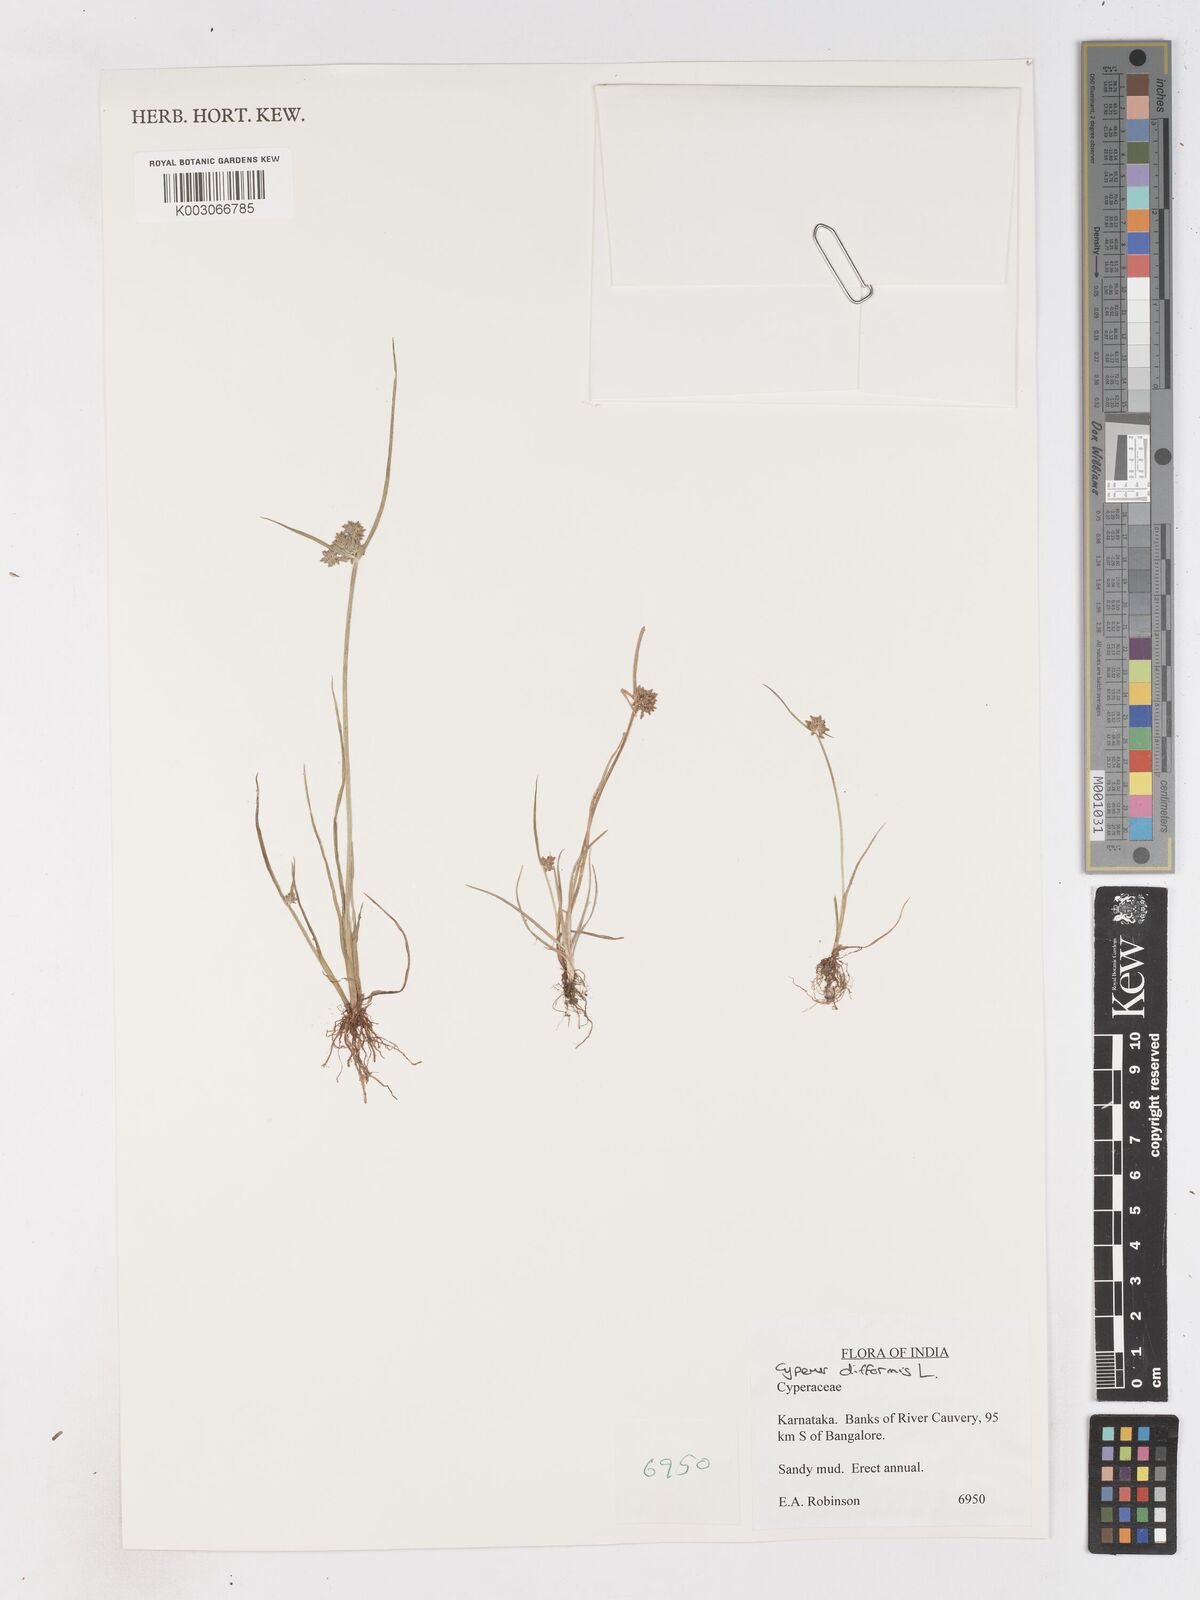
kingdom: Plantae
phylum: Tracheophyta
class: Liliopsida
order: Poales
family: Cyperaceae
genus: Cyperus
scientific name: Cyperus difformis
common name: Variable flatsedge
